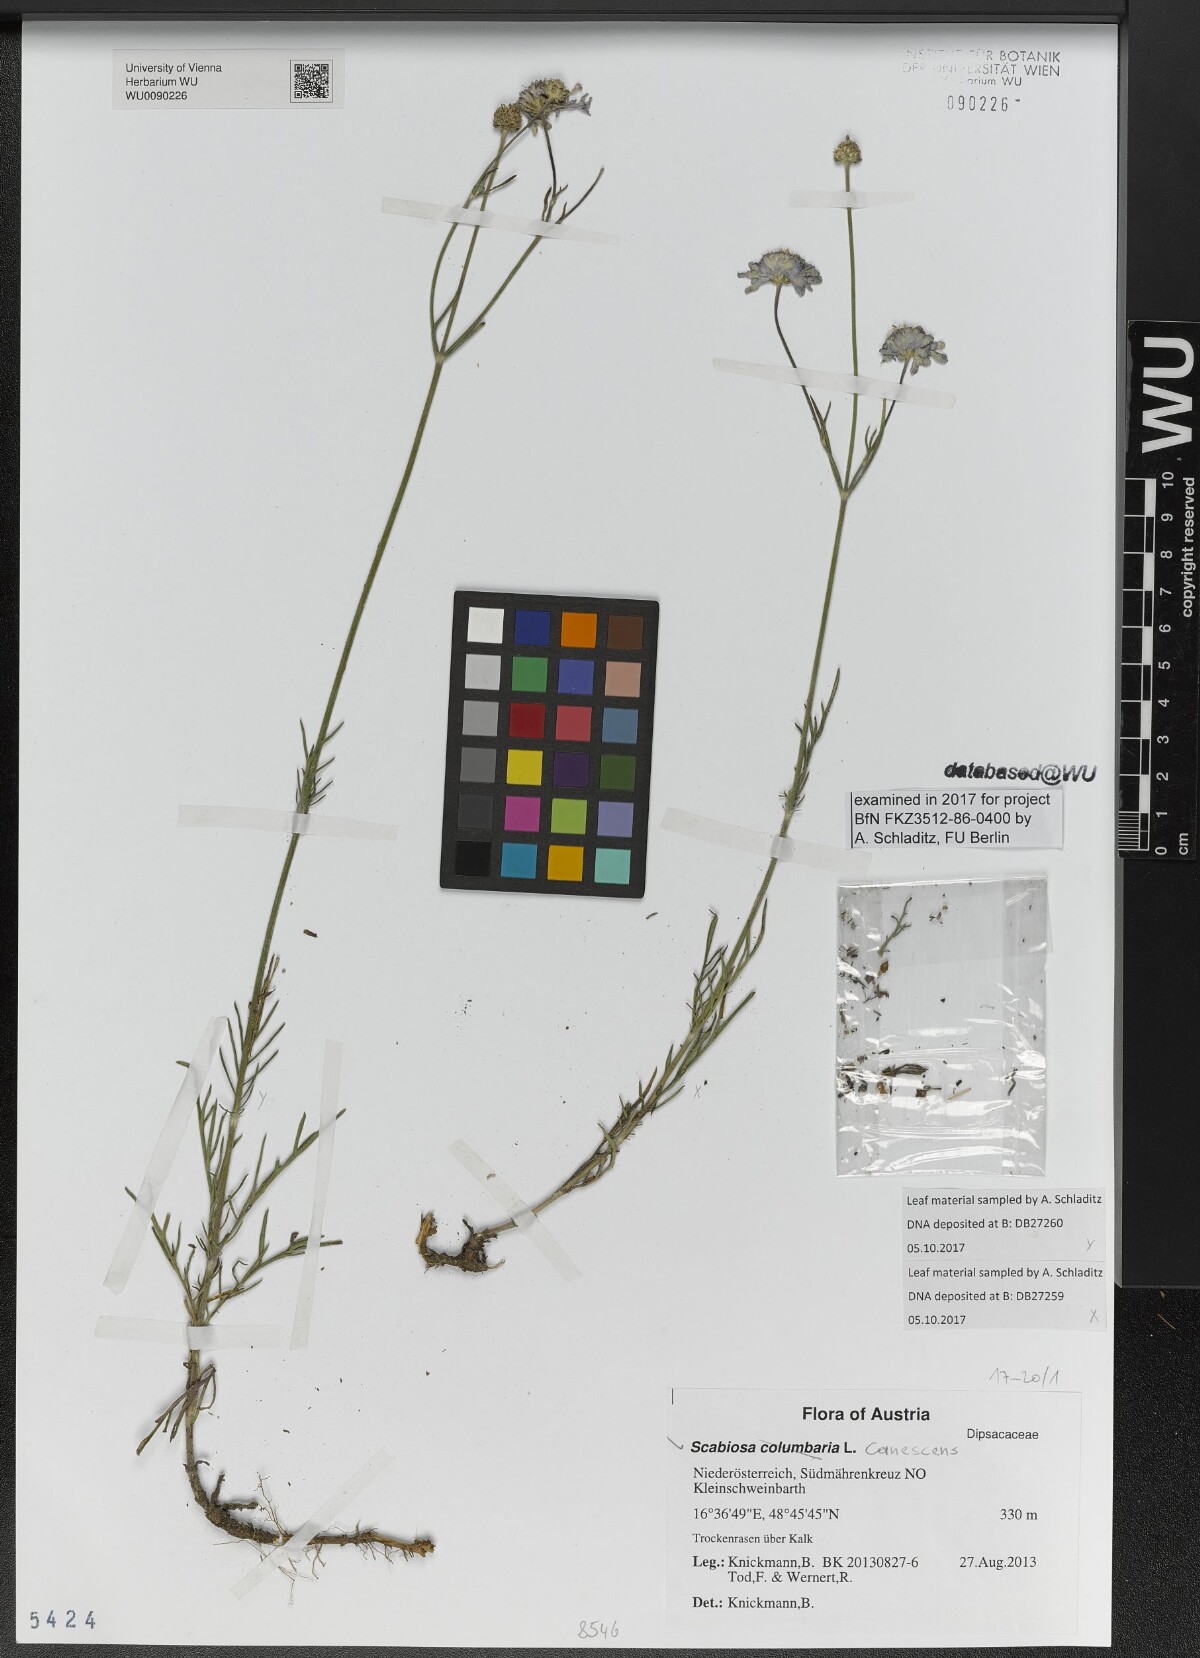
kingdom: Plantae
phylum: Tracheophyta
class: Magnoliopsida
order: Dipsacales
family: Caprifoliaceae
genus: Scabiosa
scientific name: Scabiosa canescens
